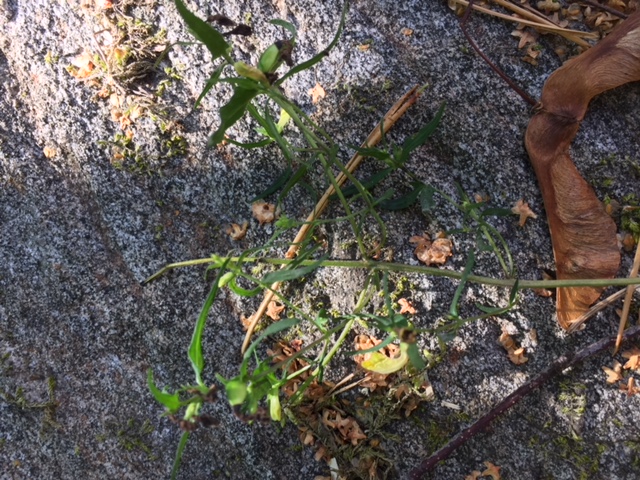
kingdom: Plantae
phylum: Tracheophyta
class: Magnoliopsida
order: Lamiales
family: Orobanchaceae
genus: Melampyrum
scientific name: Melampyrum sylvaticum
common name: Small cow-wheat
